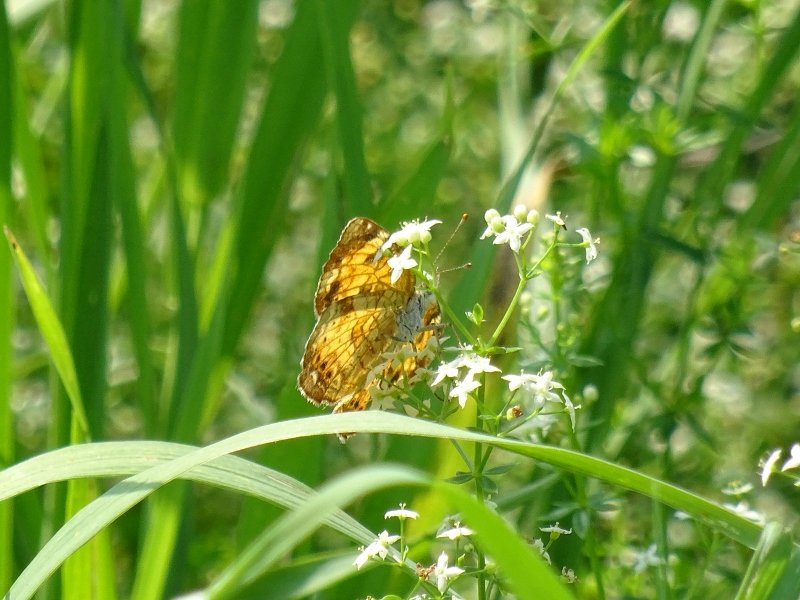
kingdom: Animalia
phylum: Arthropoda
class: Insecta
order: Lepidoptera
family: Nymphalidae
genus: Phyciodes
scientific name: Phyciodes tharos
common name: Northern Crescent
